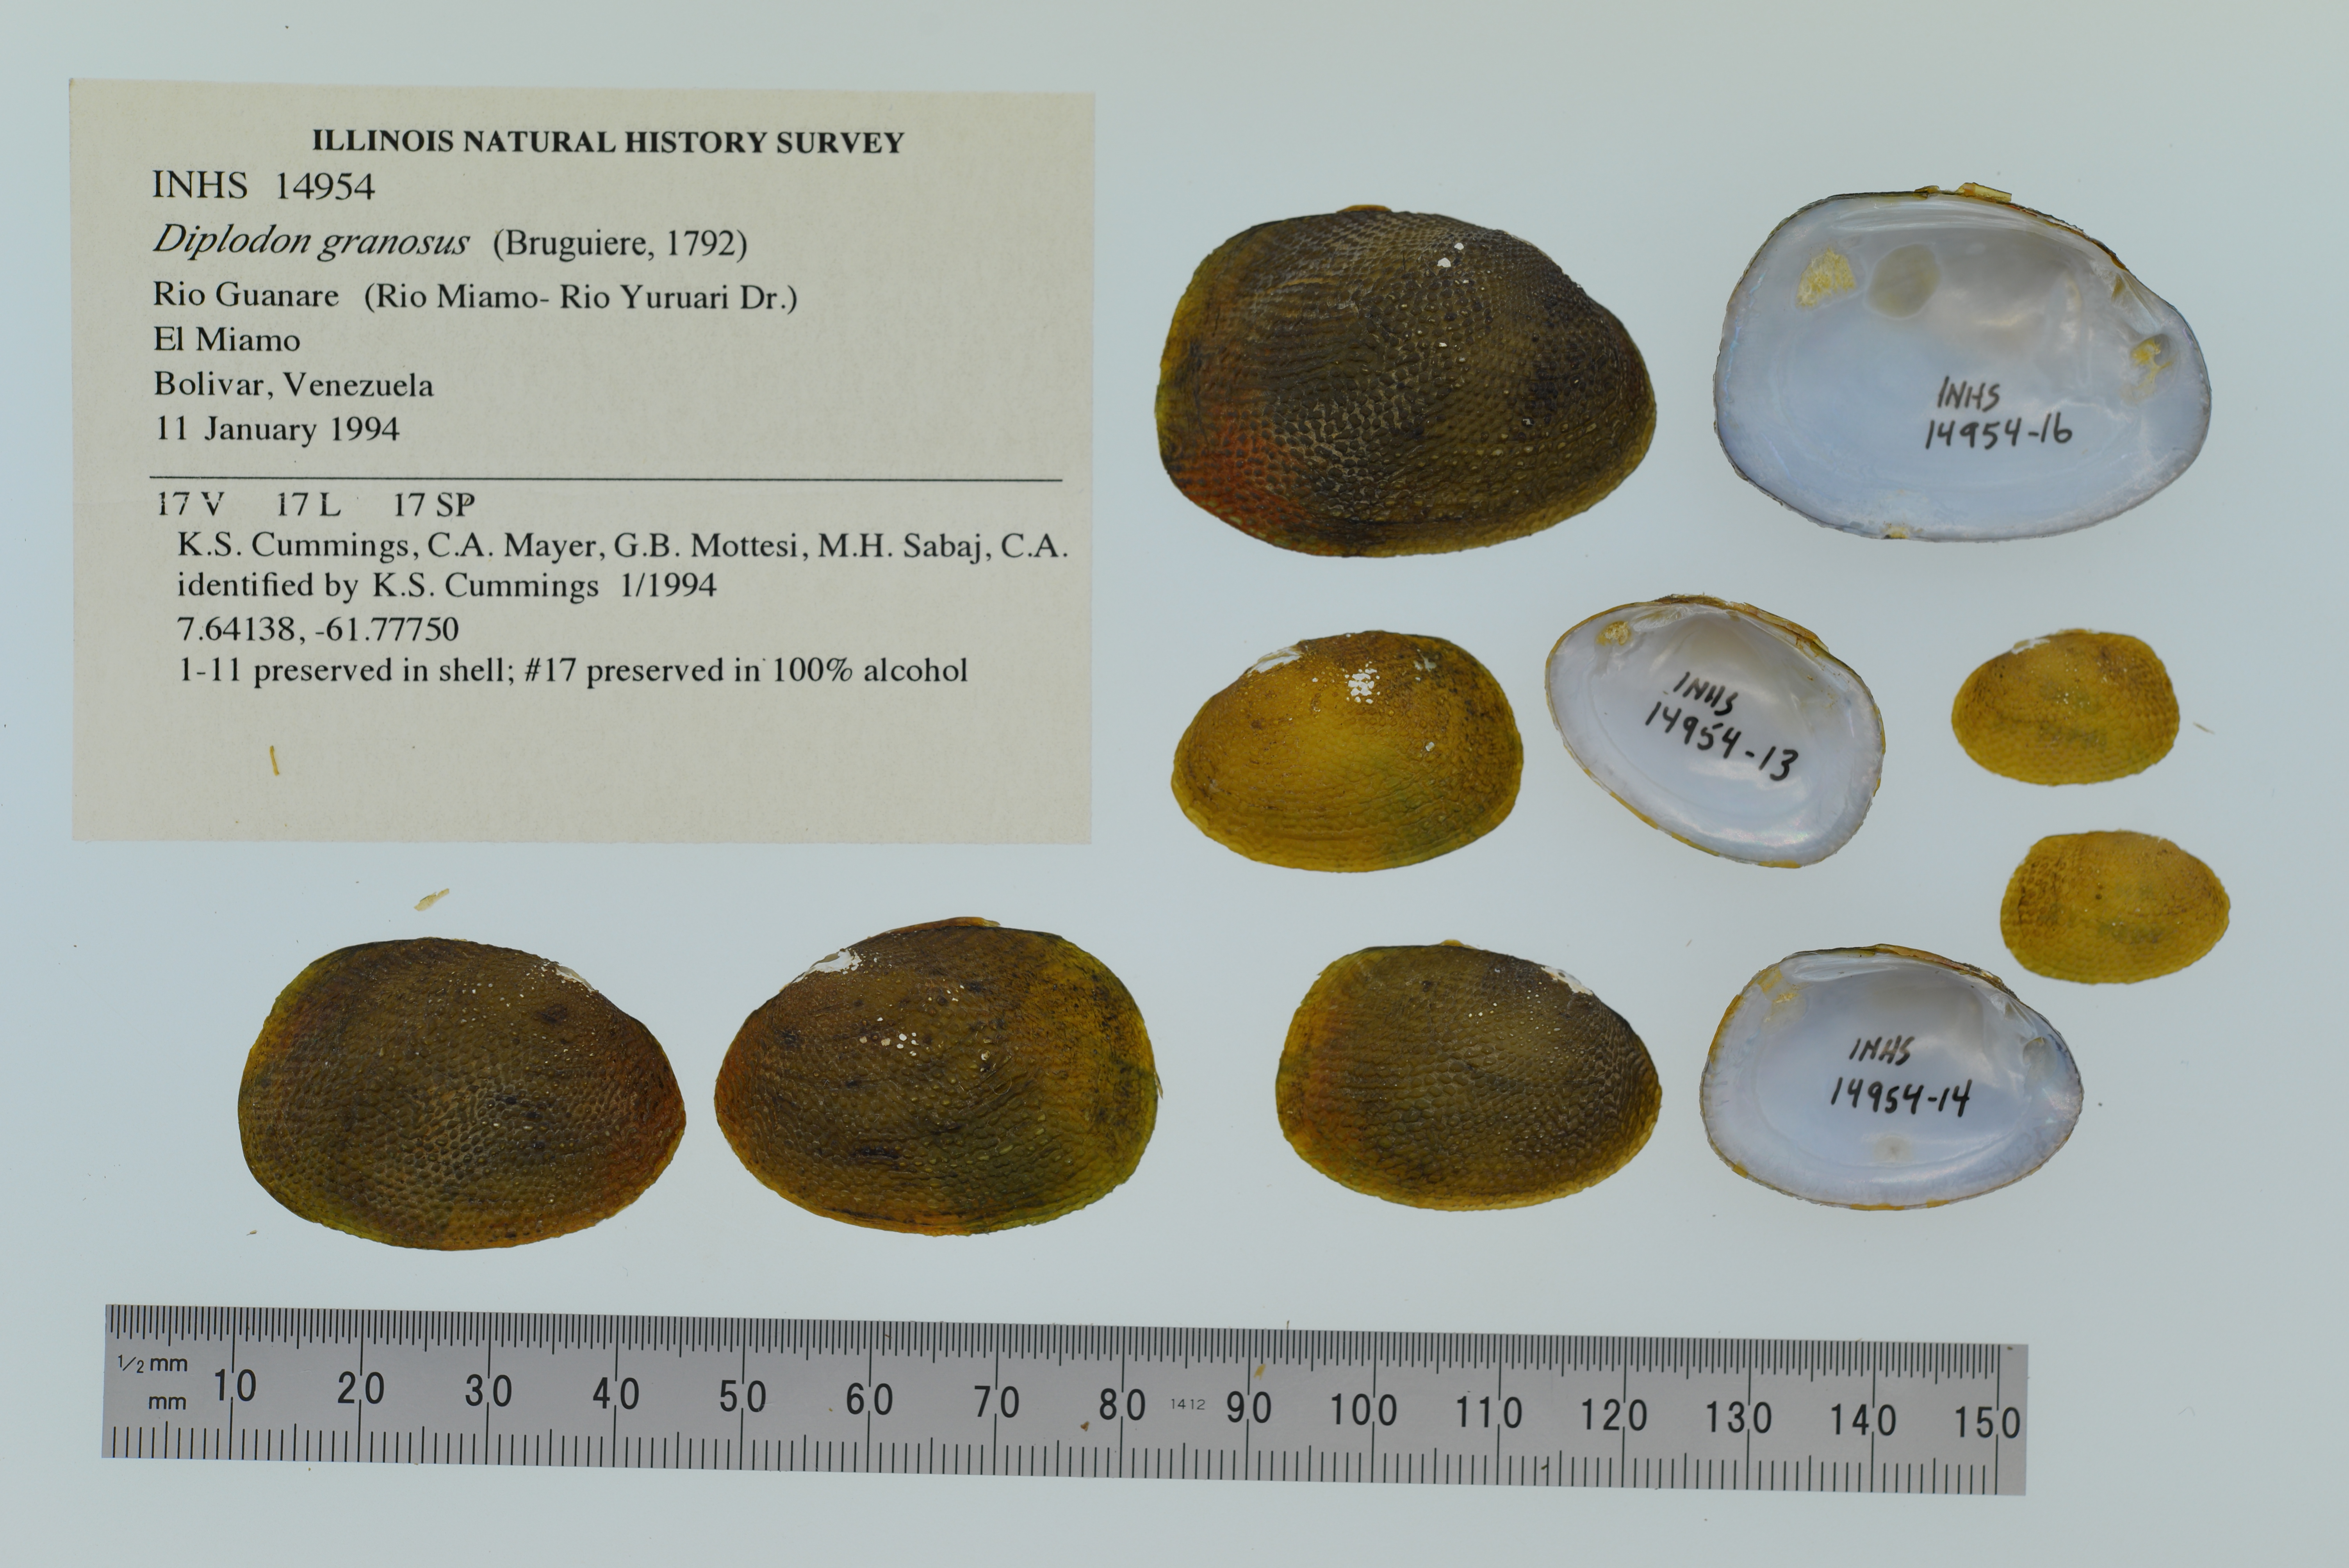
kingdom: Animalia
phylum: Mollusca
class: Bivalvia
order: Unionida
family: Hyriidae
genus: Diplodon
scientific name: Diplodon granosus
